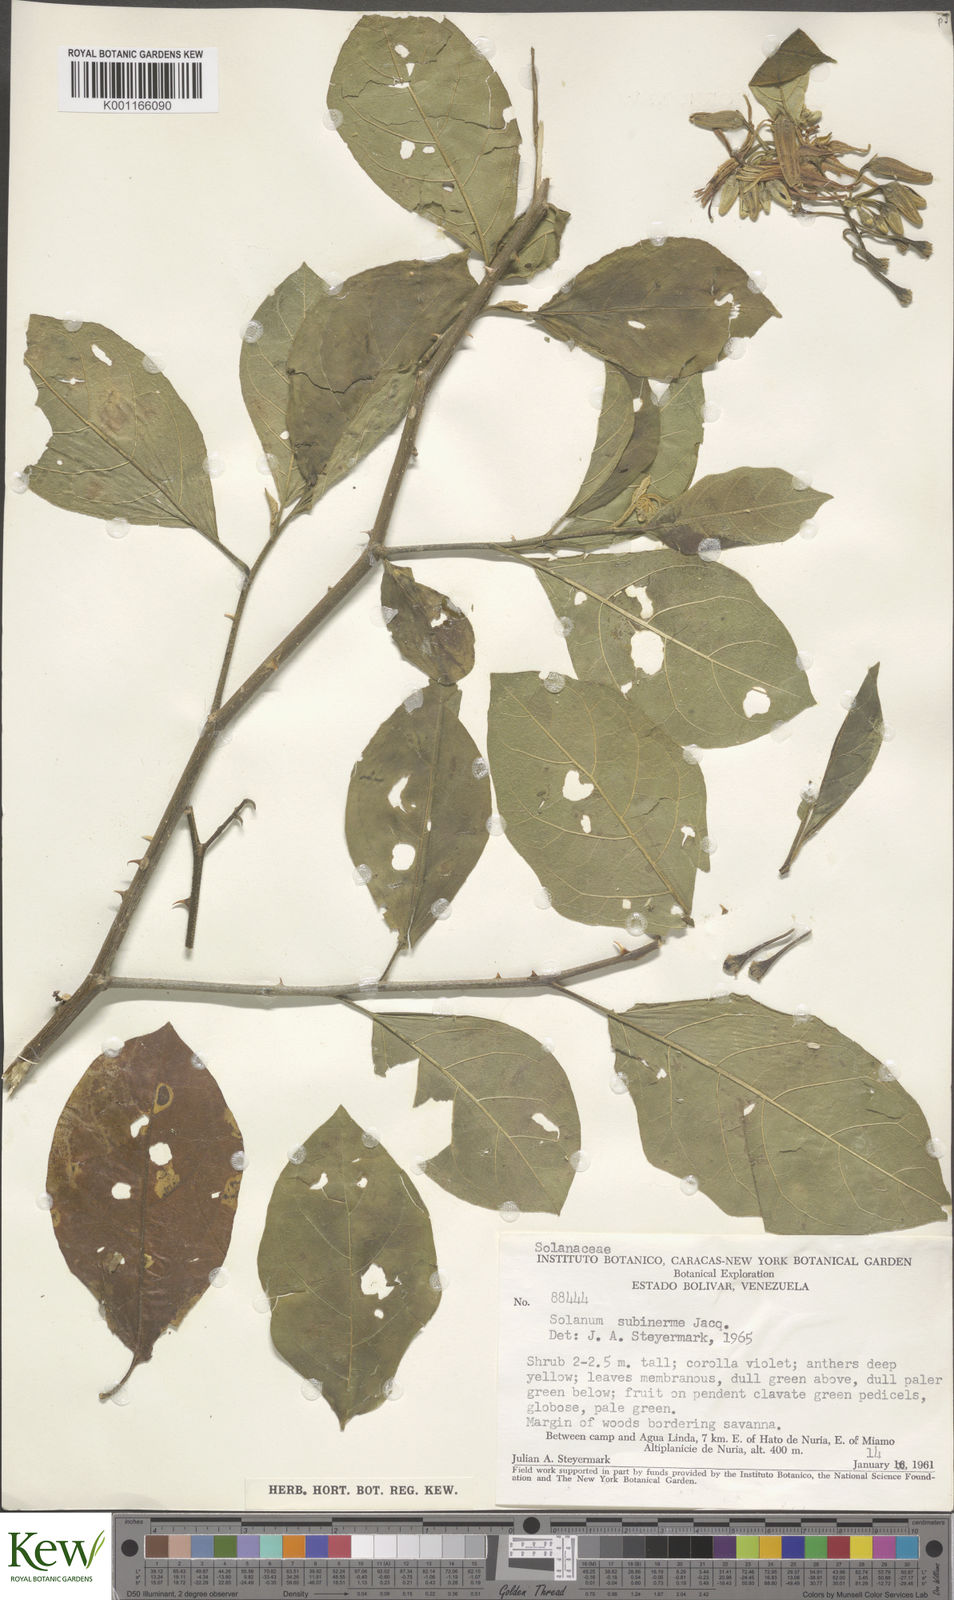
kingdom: Plantae
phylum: Tracheophyta
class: Magnoliopsida
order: Solanales
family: Solanaceae
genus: Solanum
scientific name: Solanum subinerme
